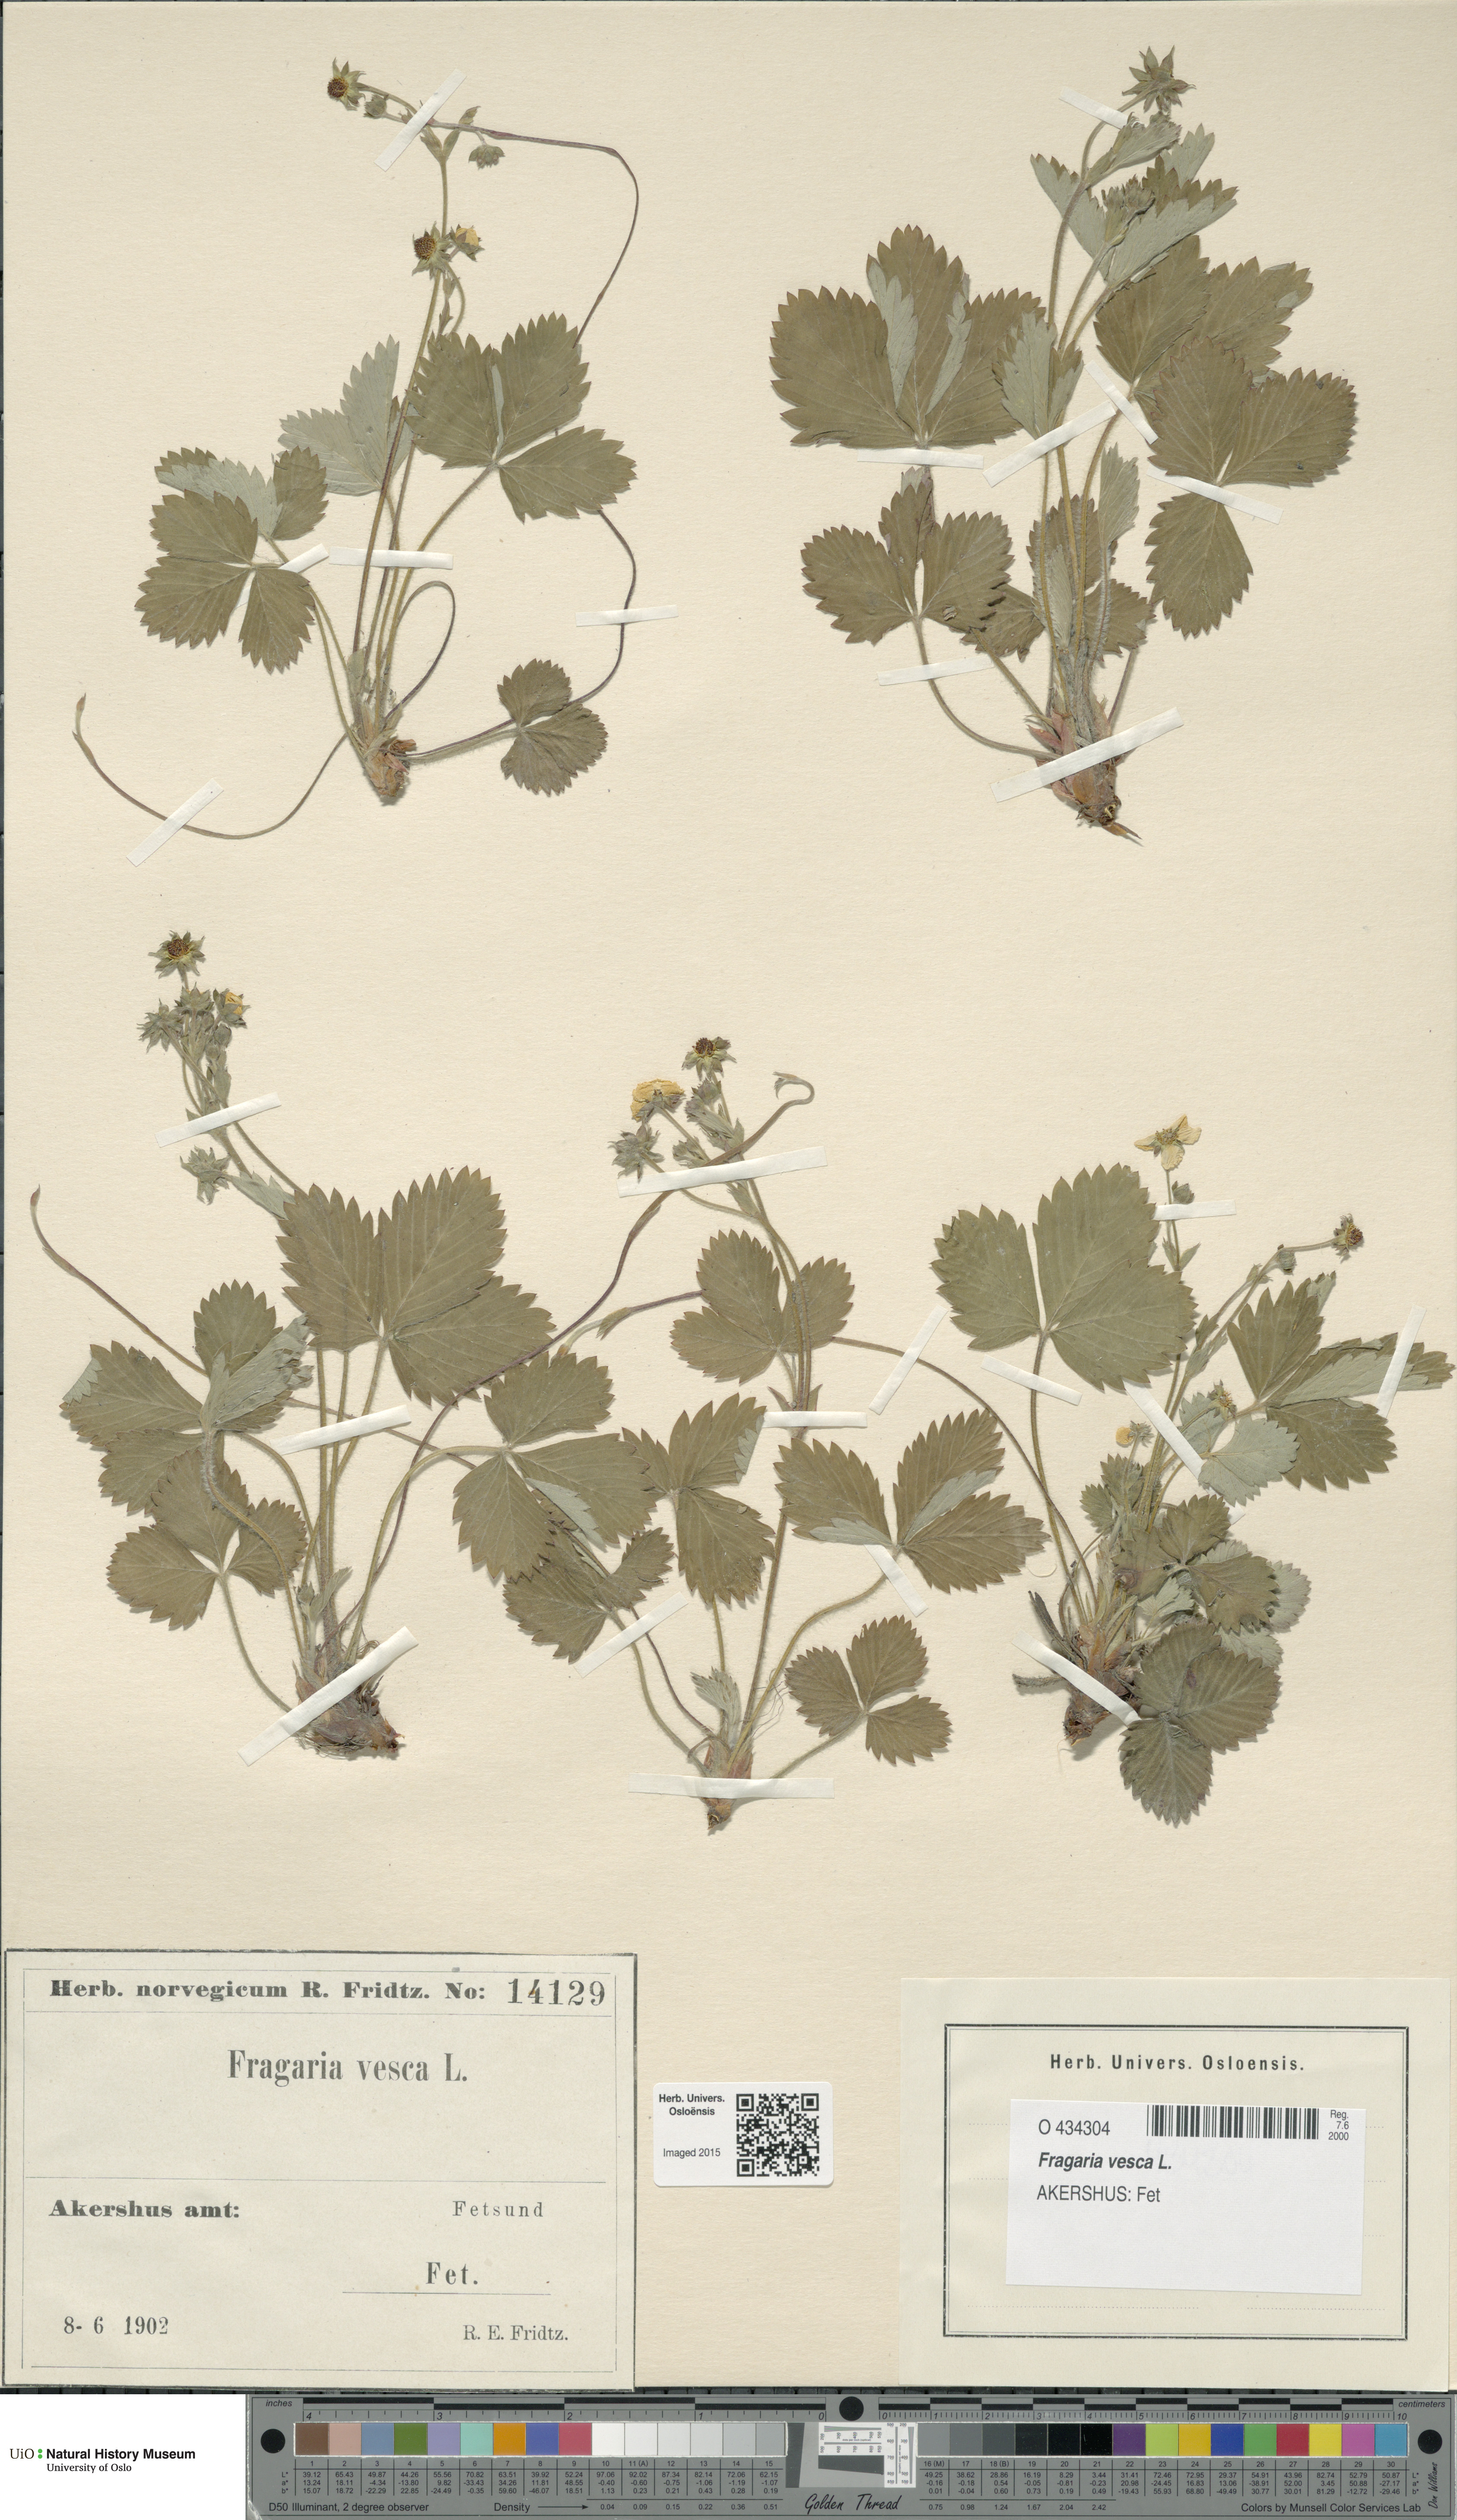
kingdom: Plantae
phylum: Tracheophyta
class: Magnoliopsida
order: Rosales
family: Rosaceae
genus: Fragaria
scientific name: Fragaria vesca
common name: Wild strawberry
